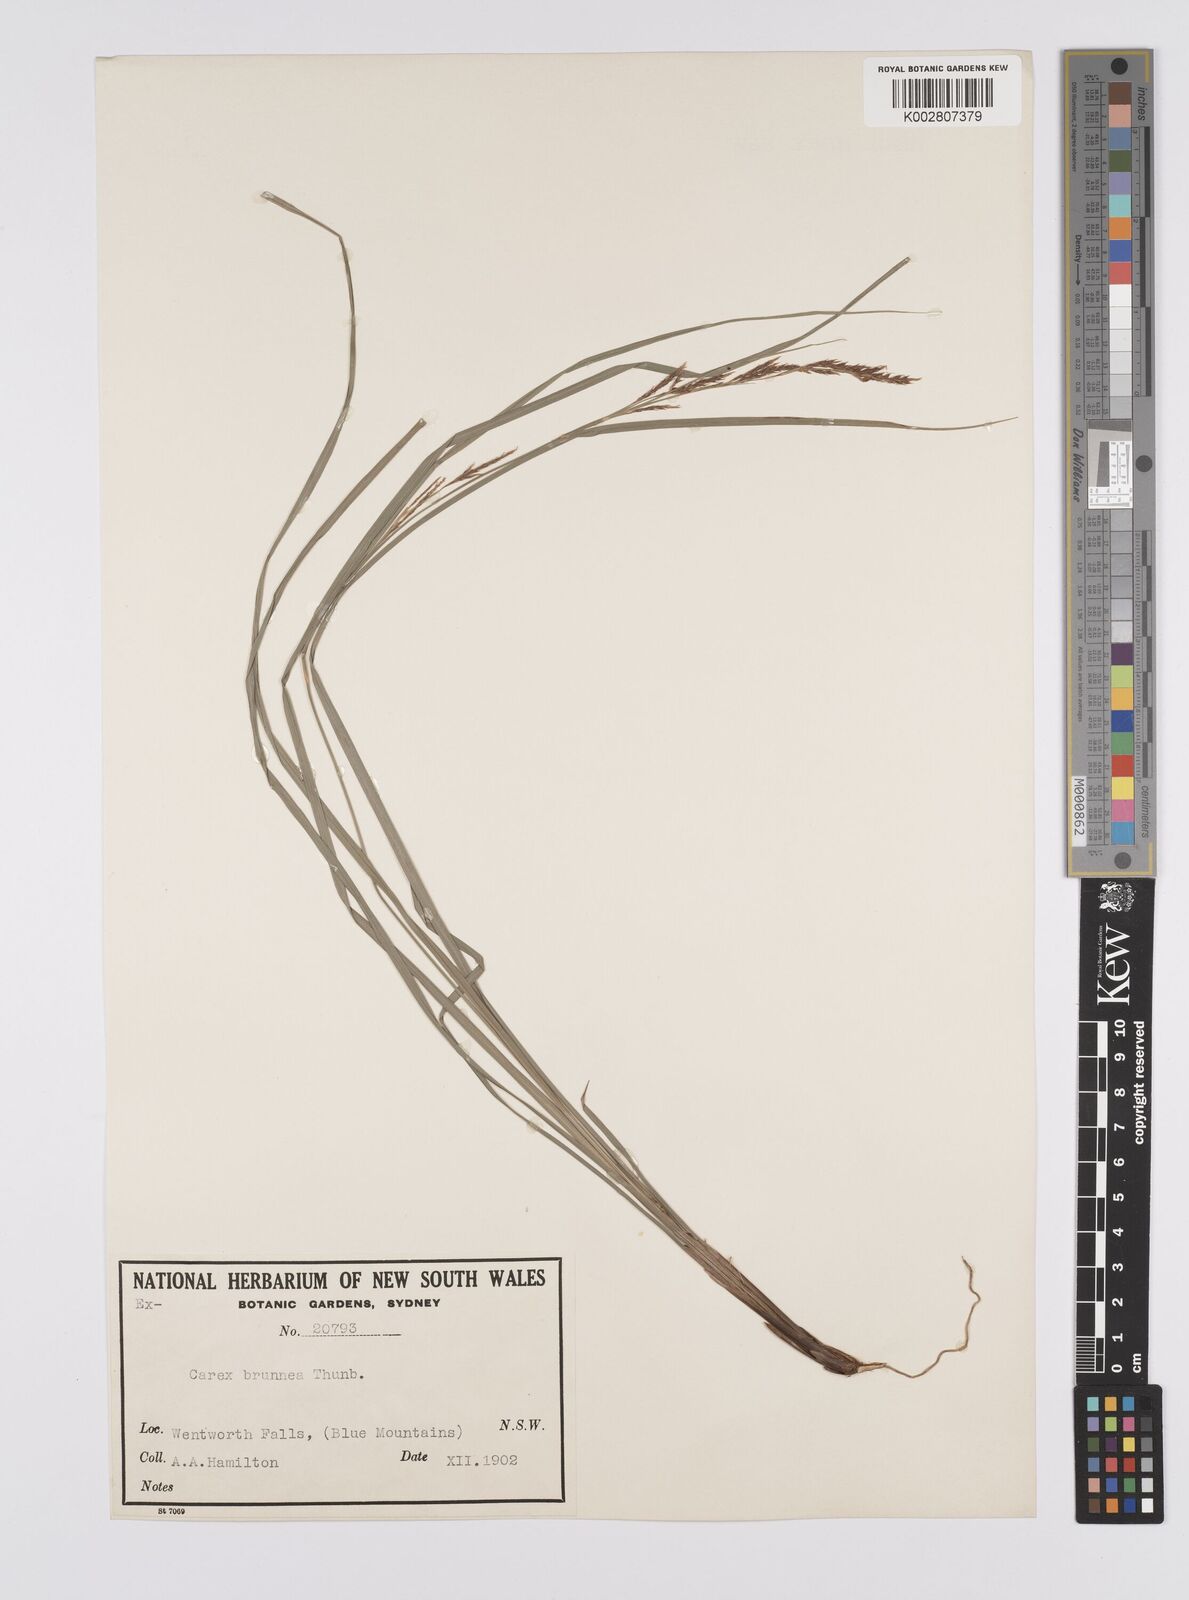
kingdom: Plantae
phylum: Tracheophyta
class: Liliopsida
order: Poales
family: Cyperaceae
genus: Carex
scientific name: Carex brunnea
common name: Greater brown sedge
